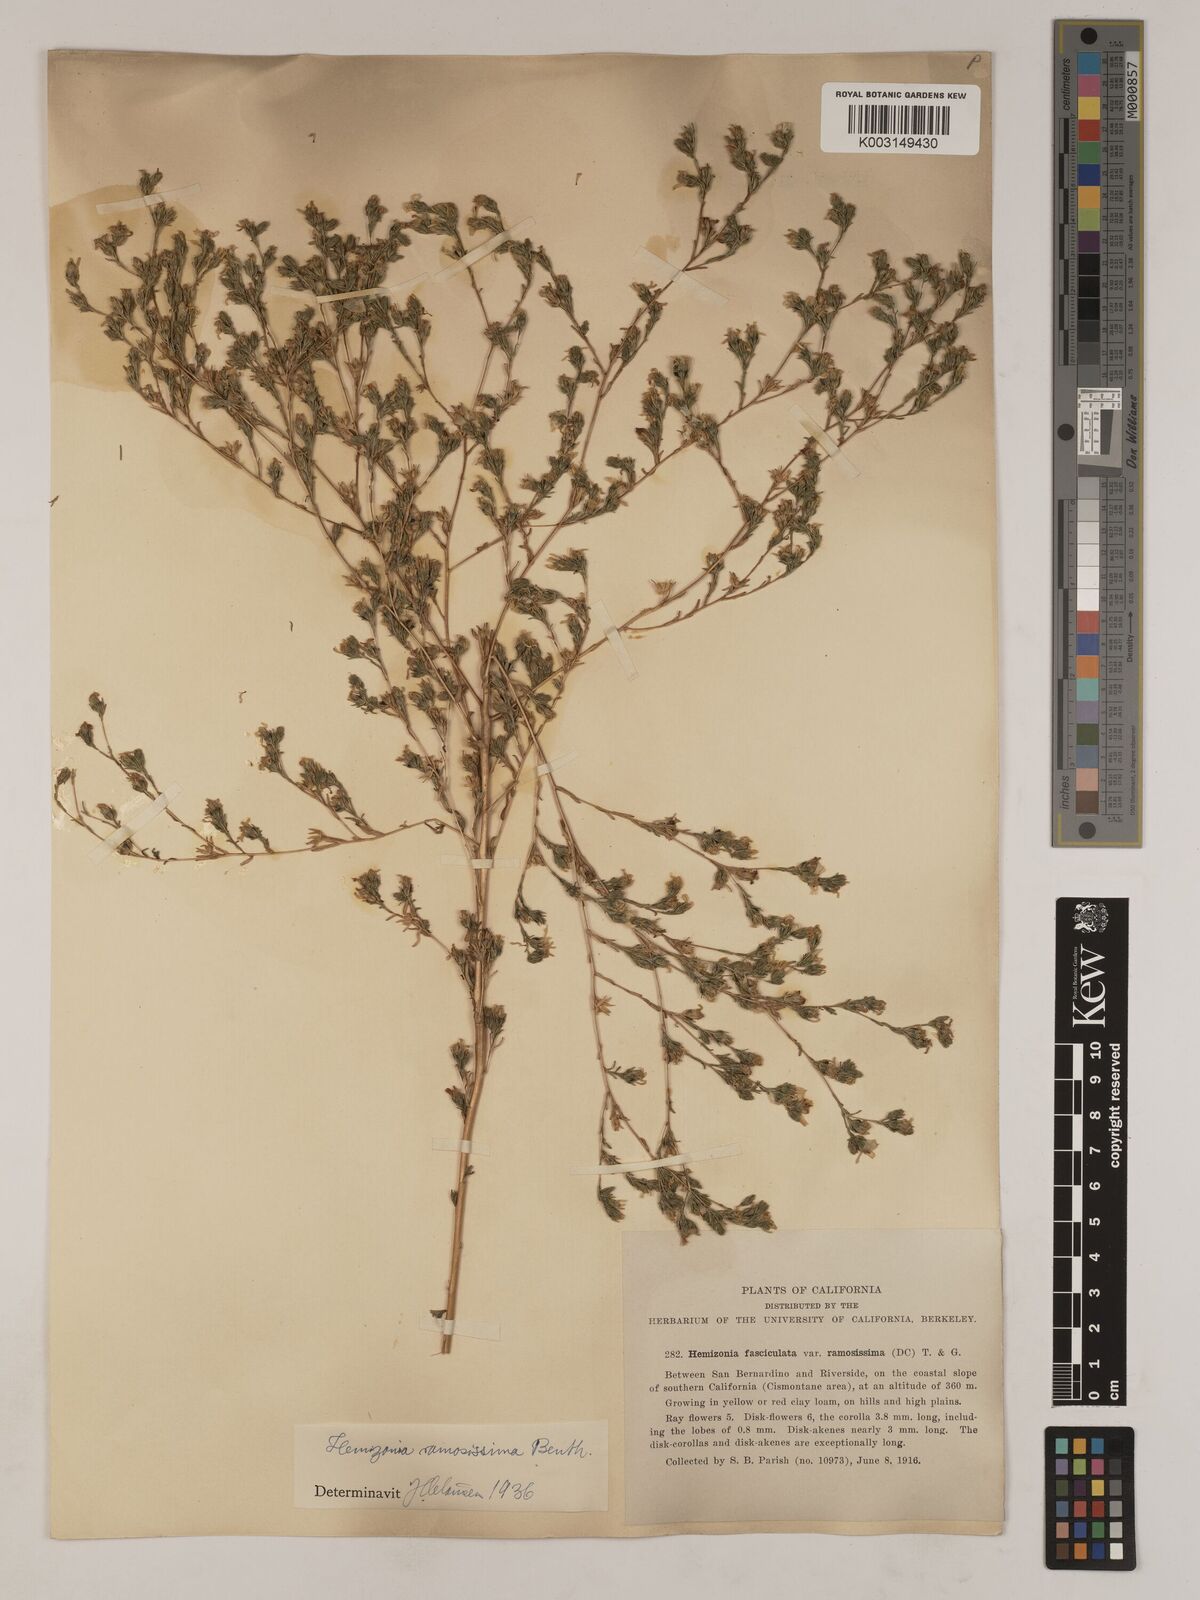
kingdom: Plantae
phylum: Tracheophyta
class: Magnoliopsida
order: Asterales
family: Asteraceae
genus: Deinandra
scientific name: Deinandra fasciculata
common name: Clustered tarweed
